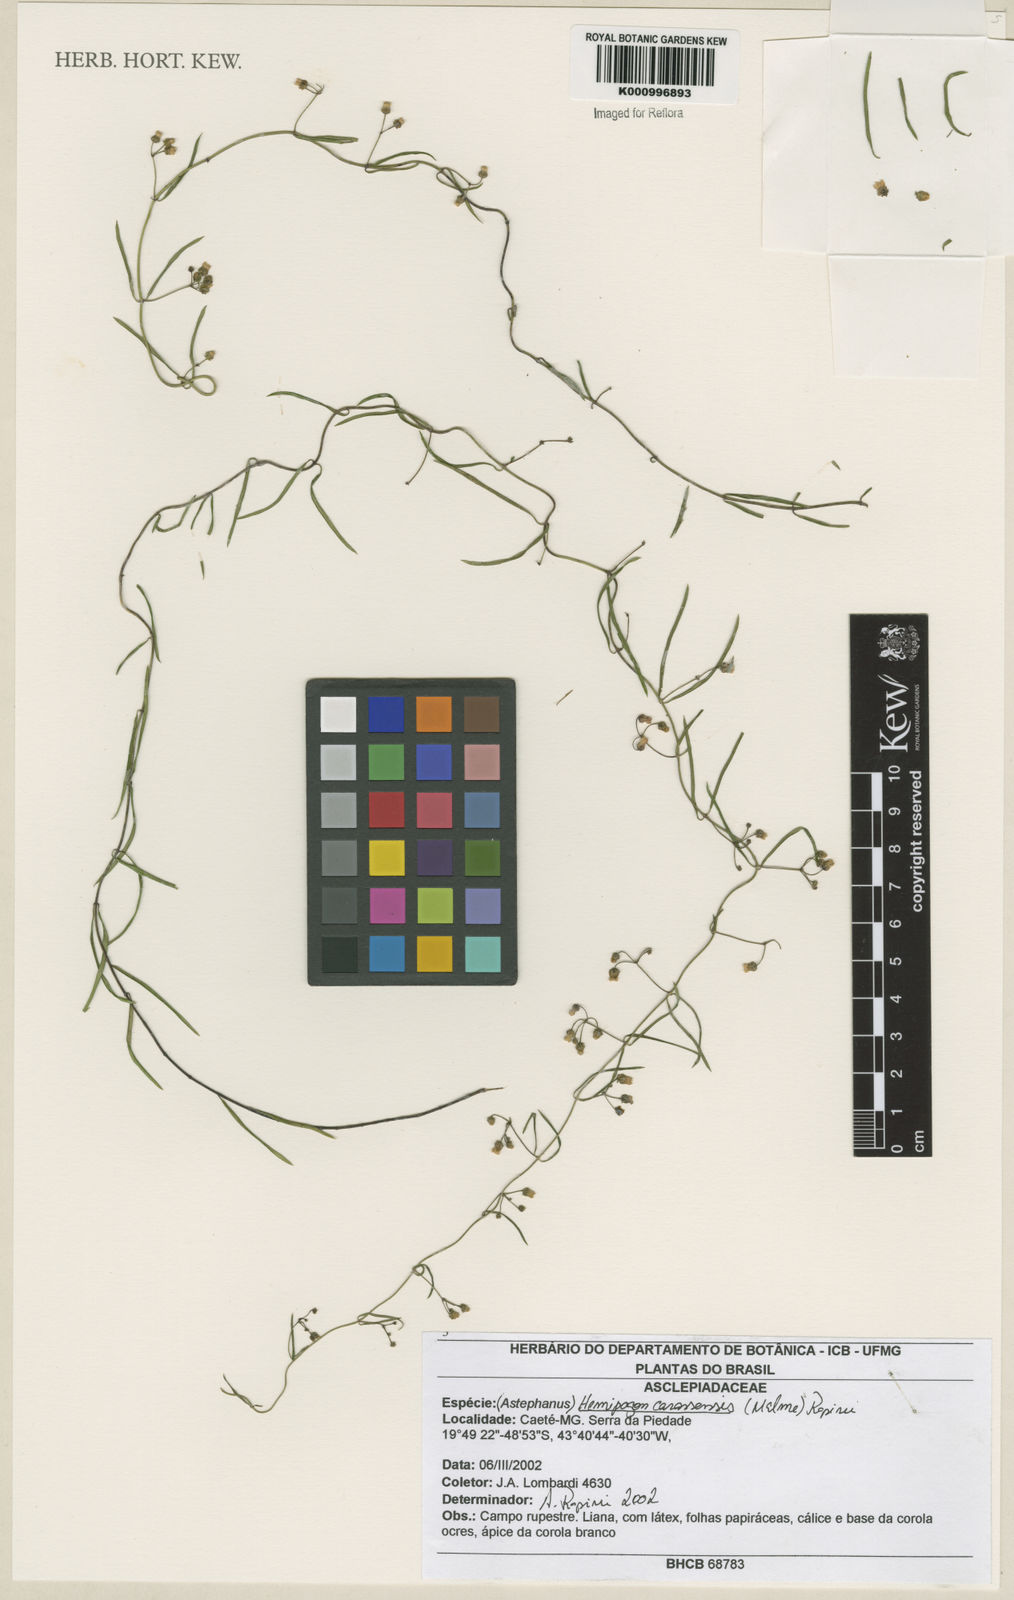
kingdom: Plantae
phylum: Tracheophyta
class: Magnoliopsida
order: Gentianales
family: Apocynaceae
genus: Morilloa
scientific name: Morilloa carassensis
